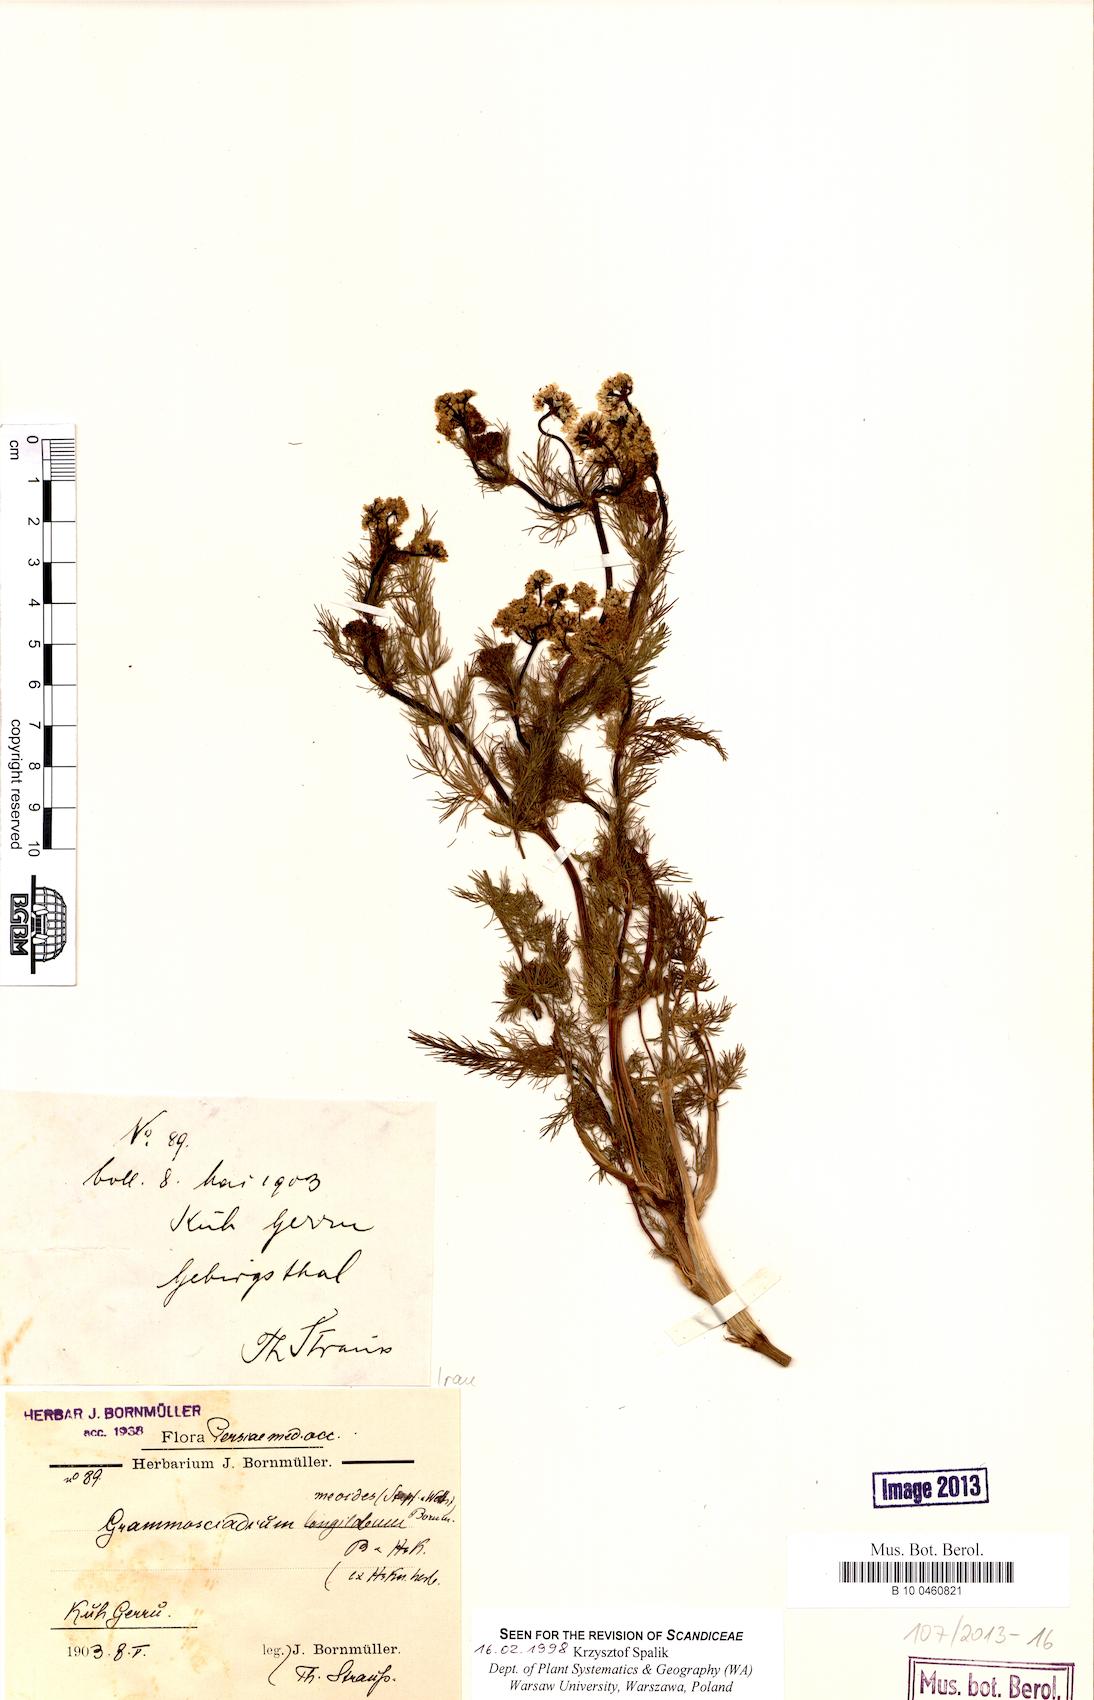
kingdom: Plantae
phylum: Tracheophyta
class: Magnoliopsida
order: Apiales
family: Apiaceae
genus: Chaerophyllum
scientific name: Chaerophyllum macrospermum
